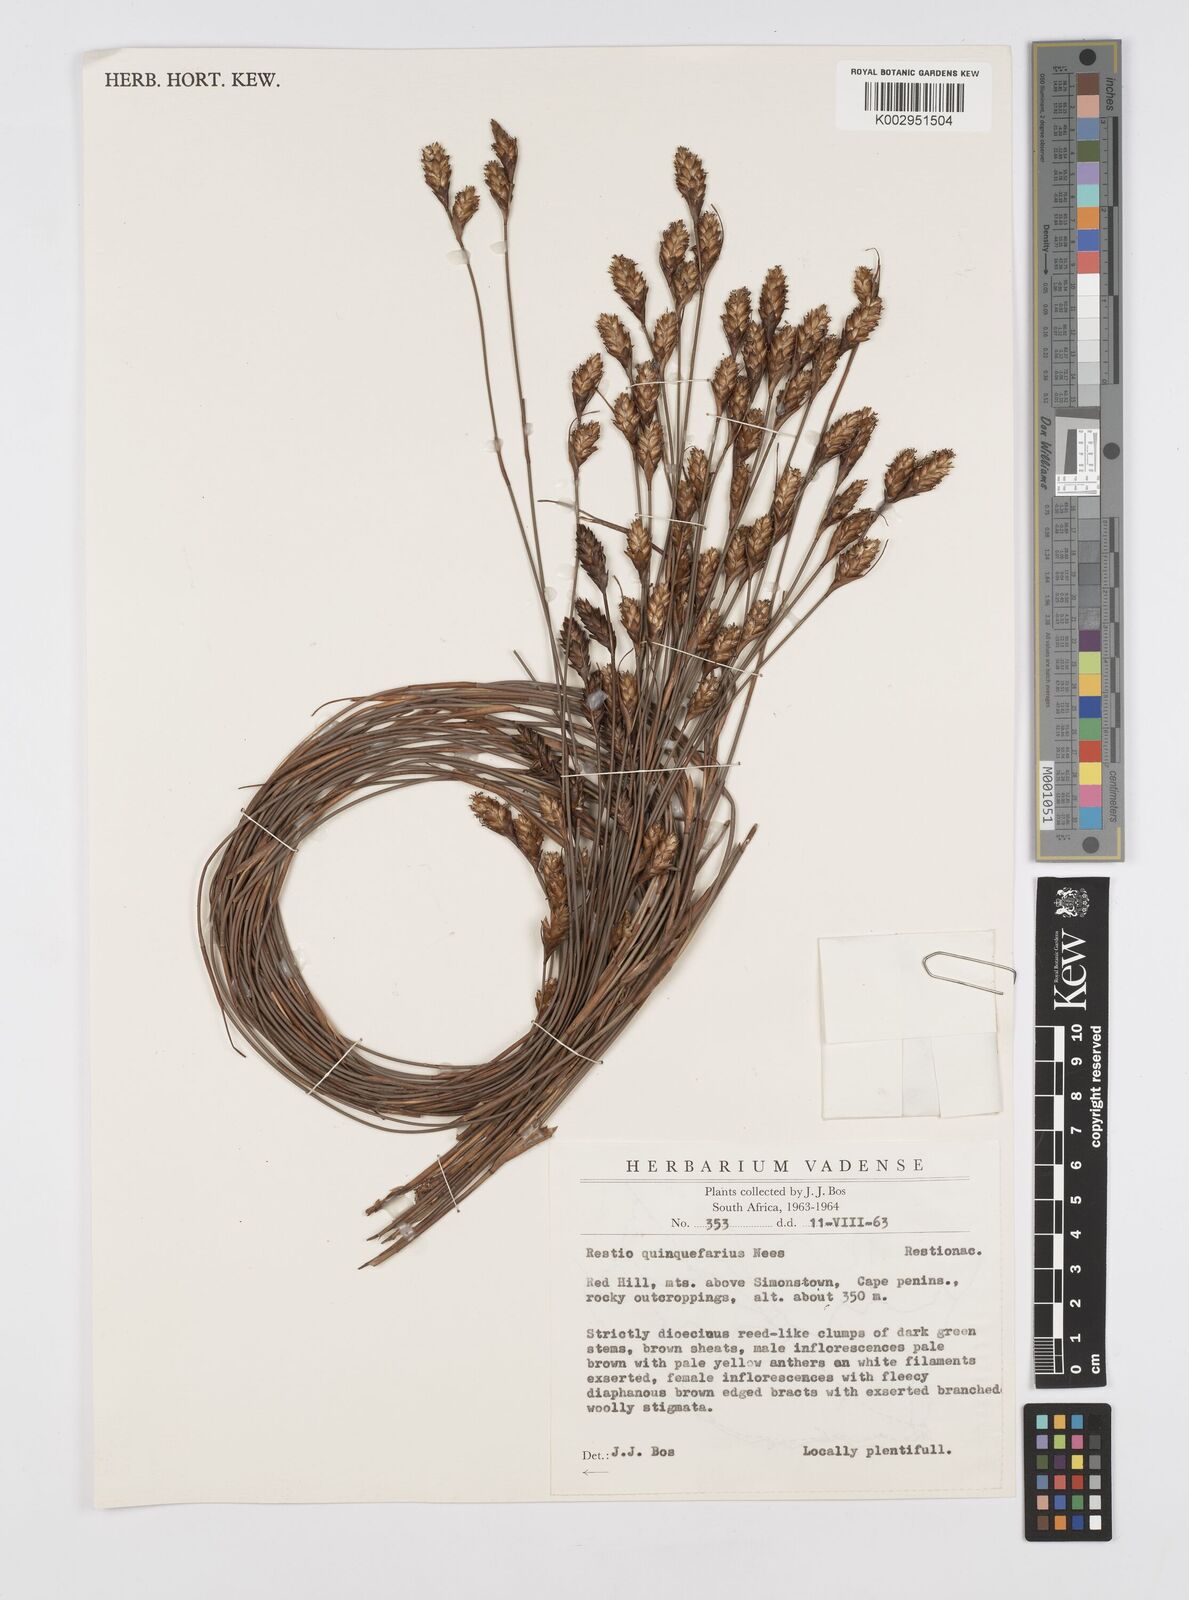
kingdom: Plantae
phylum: Tracheophyta
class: Liliopsida
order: Poales
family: Restionaceae
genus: Restio
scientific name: Restio quinquefarius
